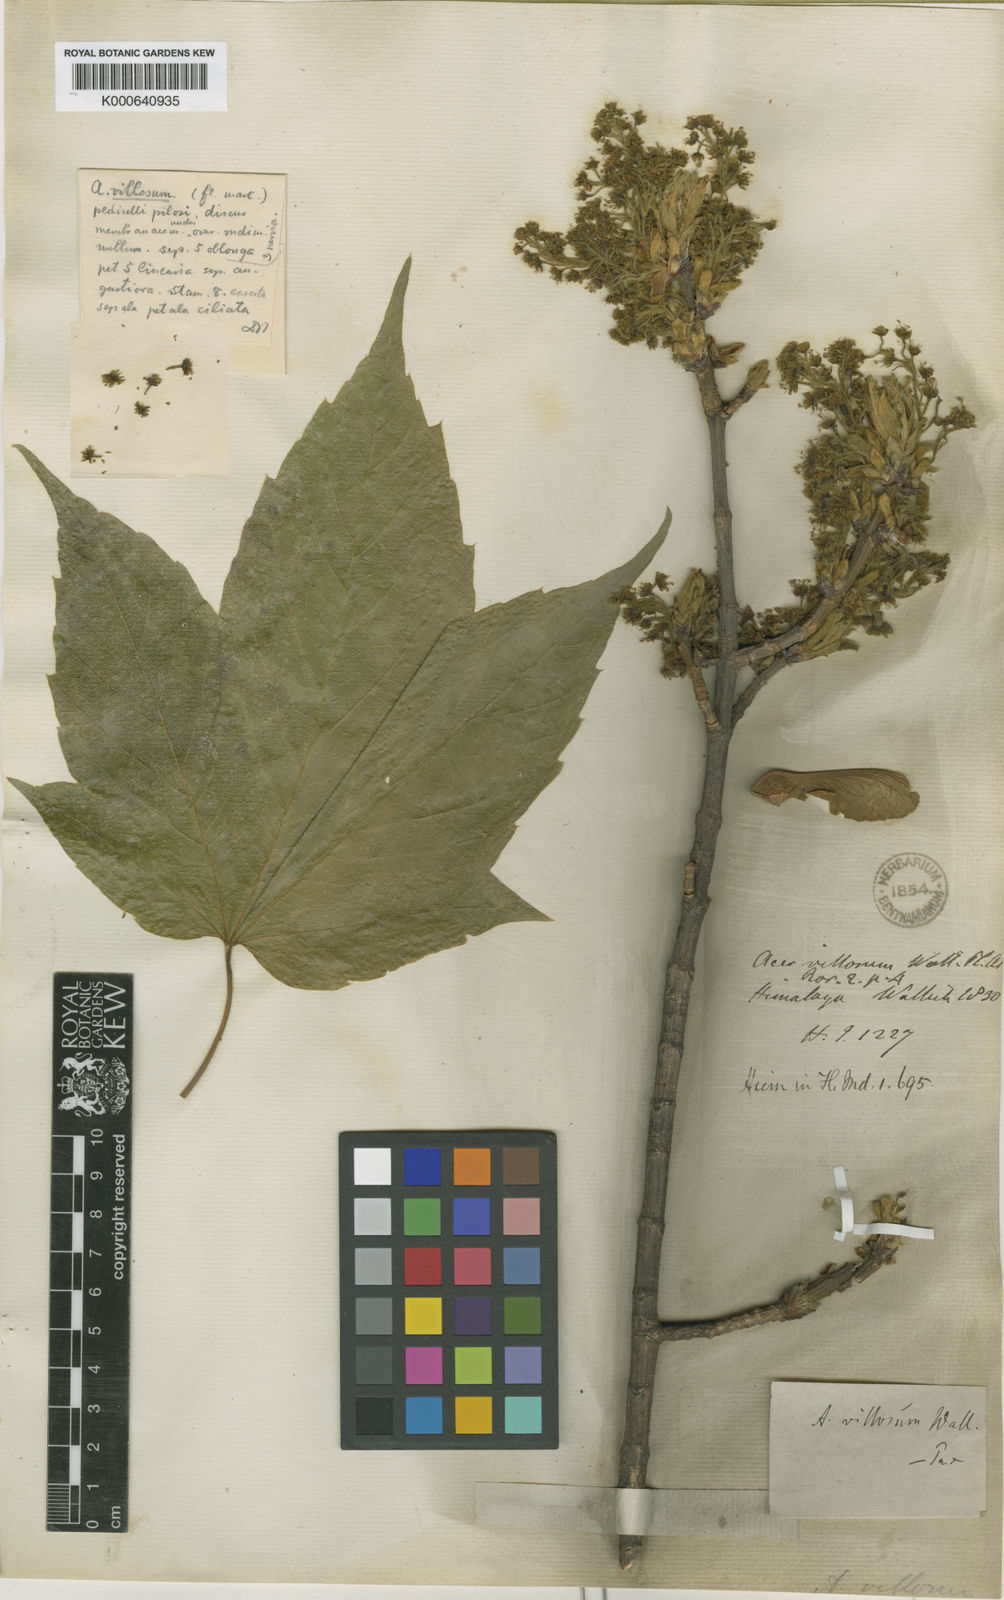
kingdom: Plantae
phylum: Tracheophyta
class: Magnoliopsida
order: Sapindales
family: Sapindaceae
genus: Acer
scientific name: Acer sterculiaceum
